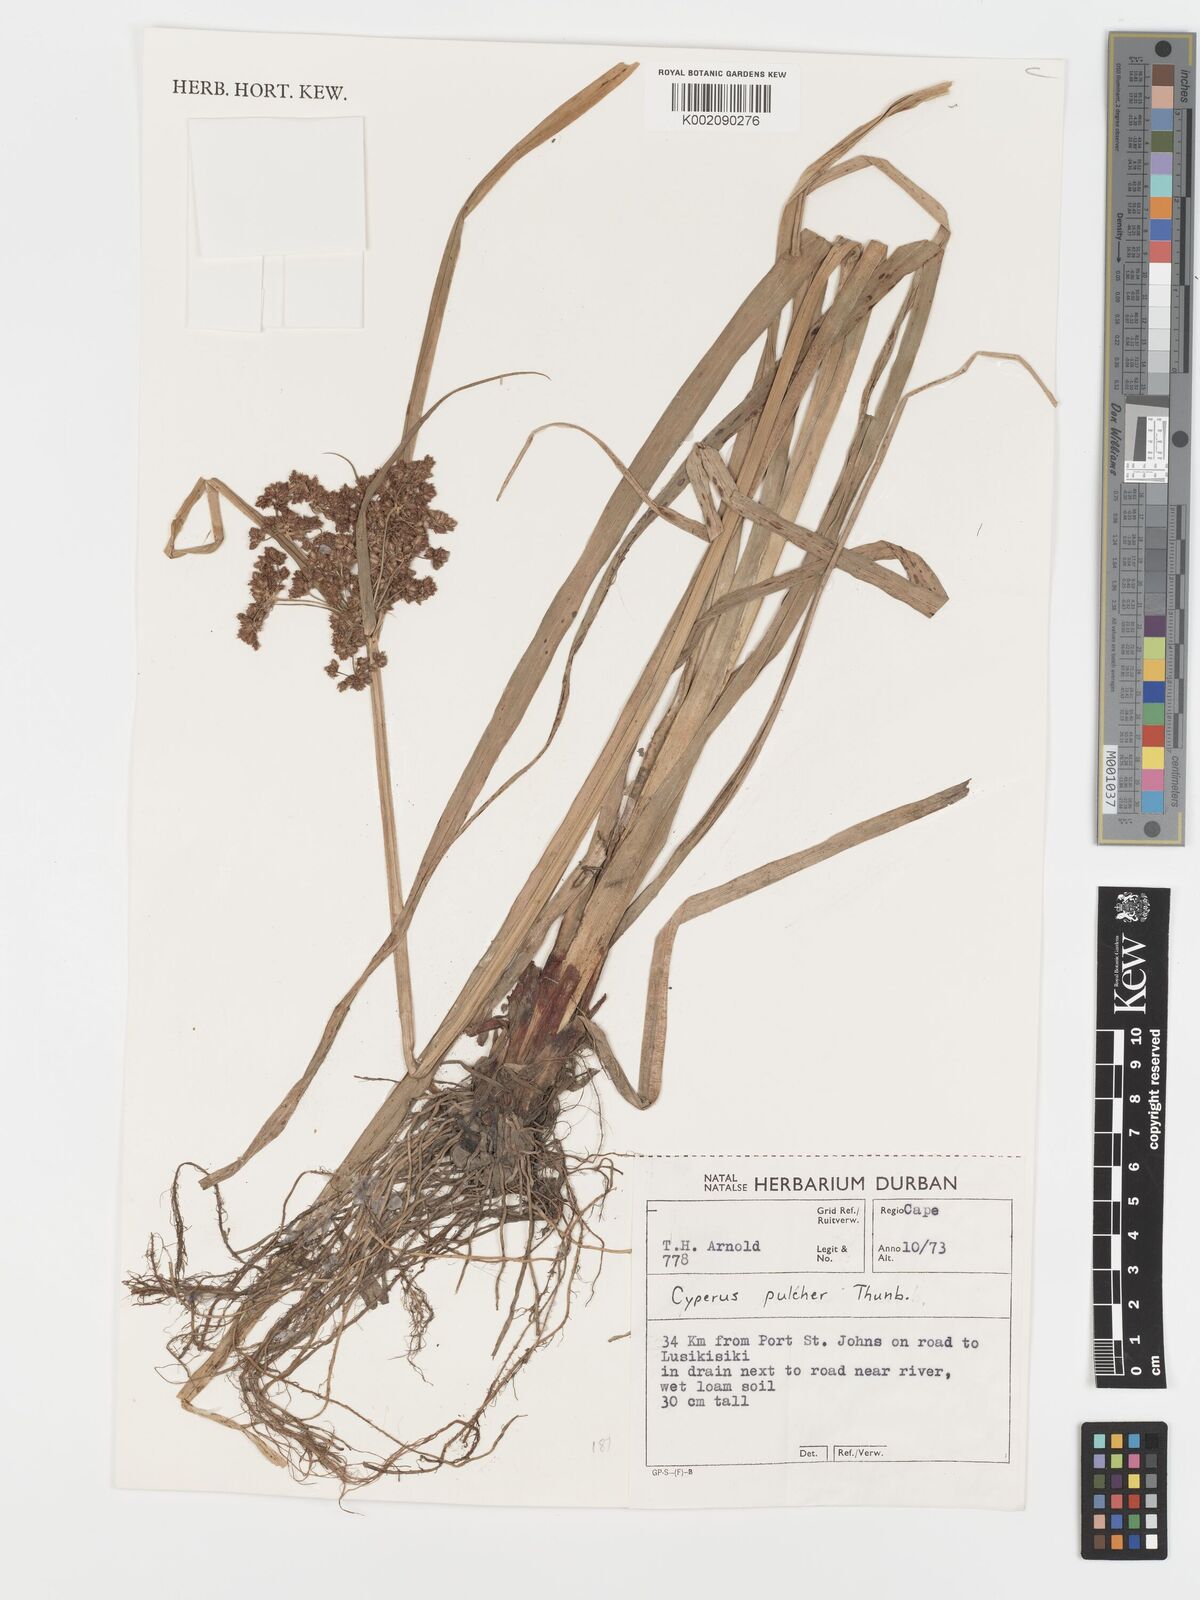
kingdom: Plantae
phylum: Tracheophyta
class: Liliopsida
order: Poales
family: Cyperaceae
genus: Cyperus
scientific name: Cyperus pulcher
